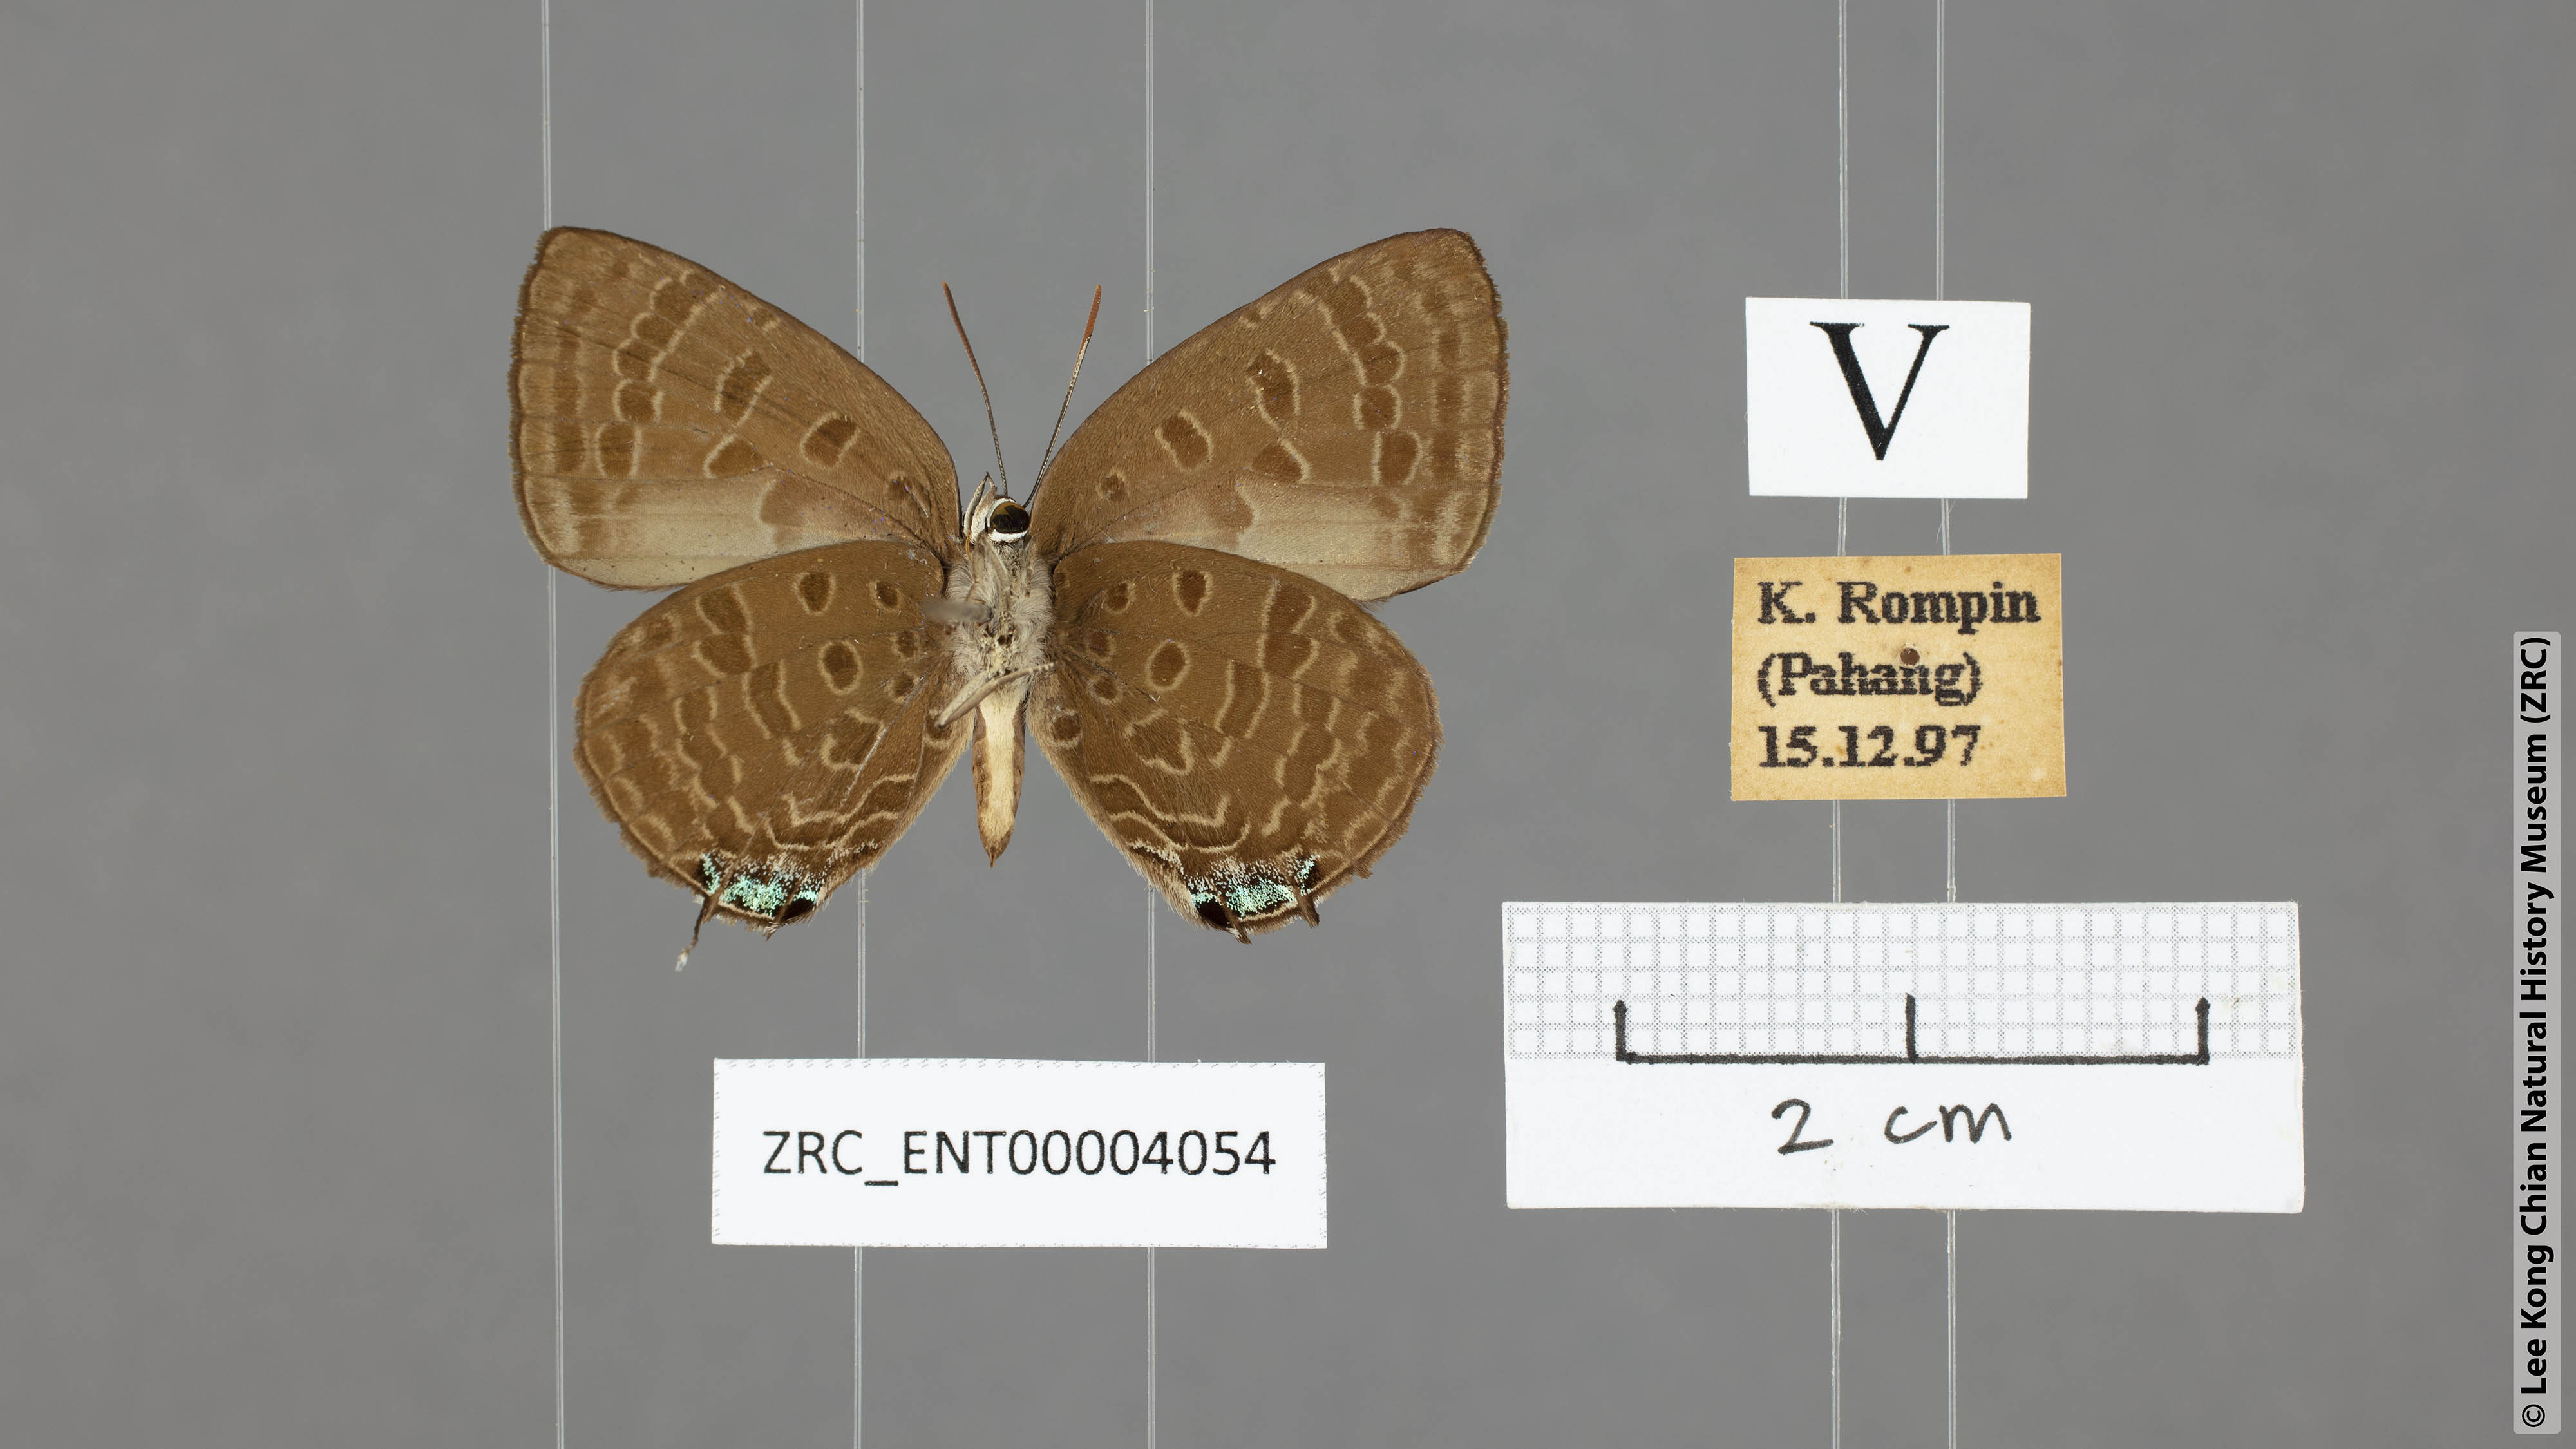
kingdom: Animalia
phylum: Arthropoda
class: Insecta
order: Lepidoptera
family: Lycaenidae
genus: Arhopala
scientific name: Arhopala sublustris
